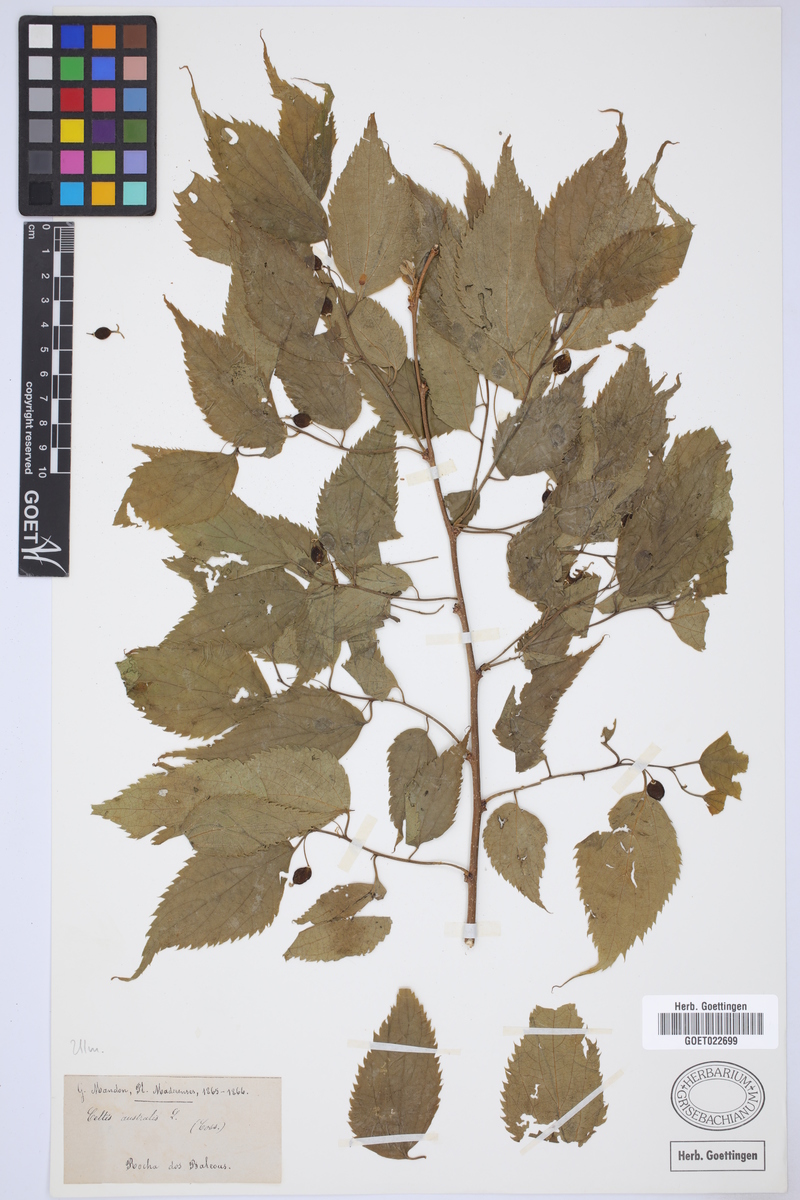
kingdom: Plantae
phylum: Tracheophyta
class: Magnoliopsida
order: Rosales
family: Cannabaceae
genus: Celtis
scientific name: Celtis australis
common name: European hackberry
